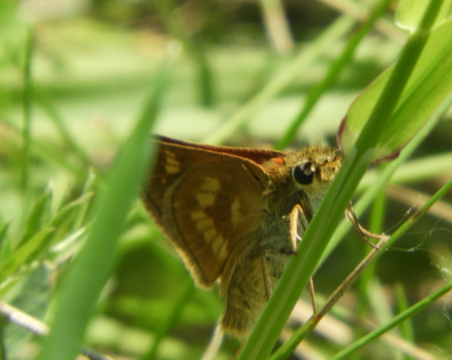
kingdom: Animalia
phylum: Arthropoda
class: Insecta
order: Lepidoptera
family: Hesperiidae
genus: Polites
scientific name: Polites
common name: Long Dash Skipper
